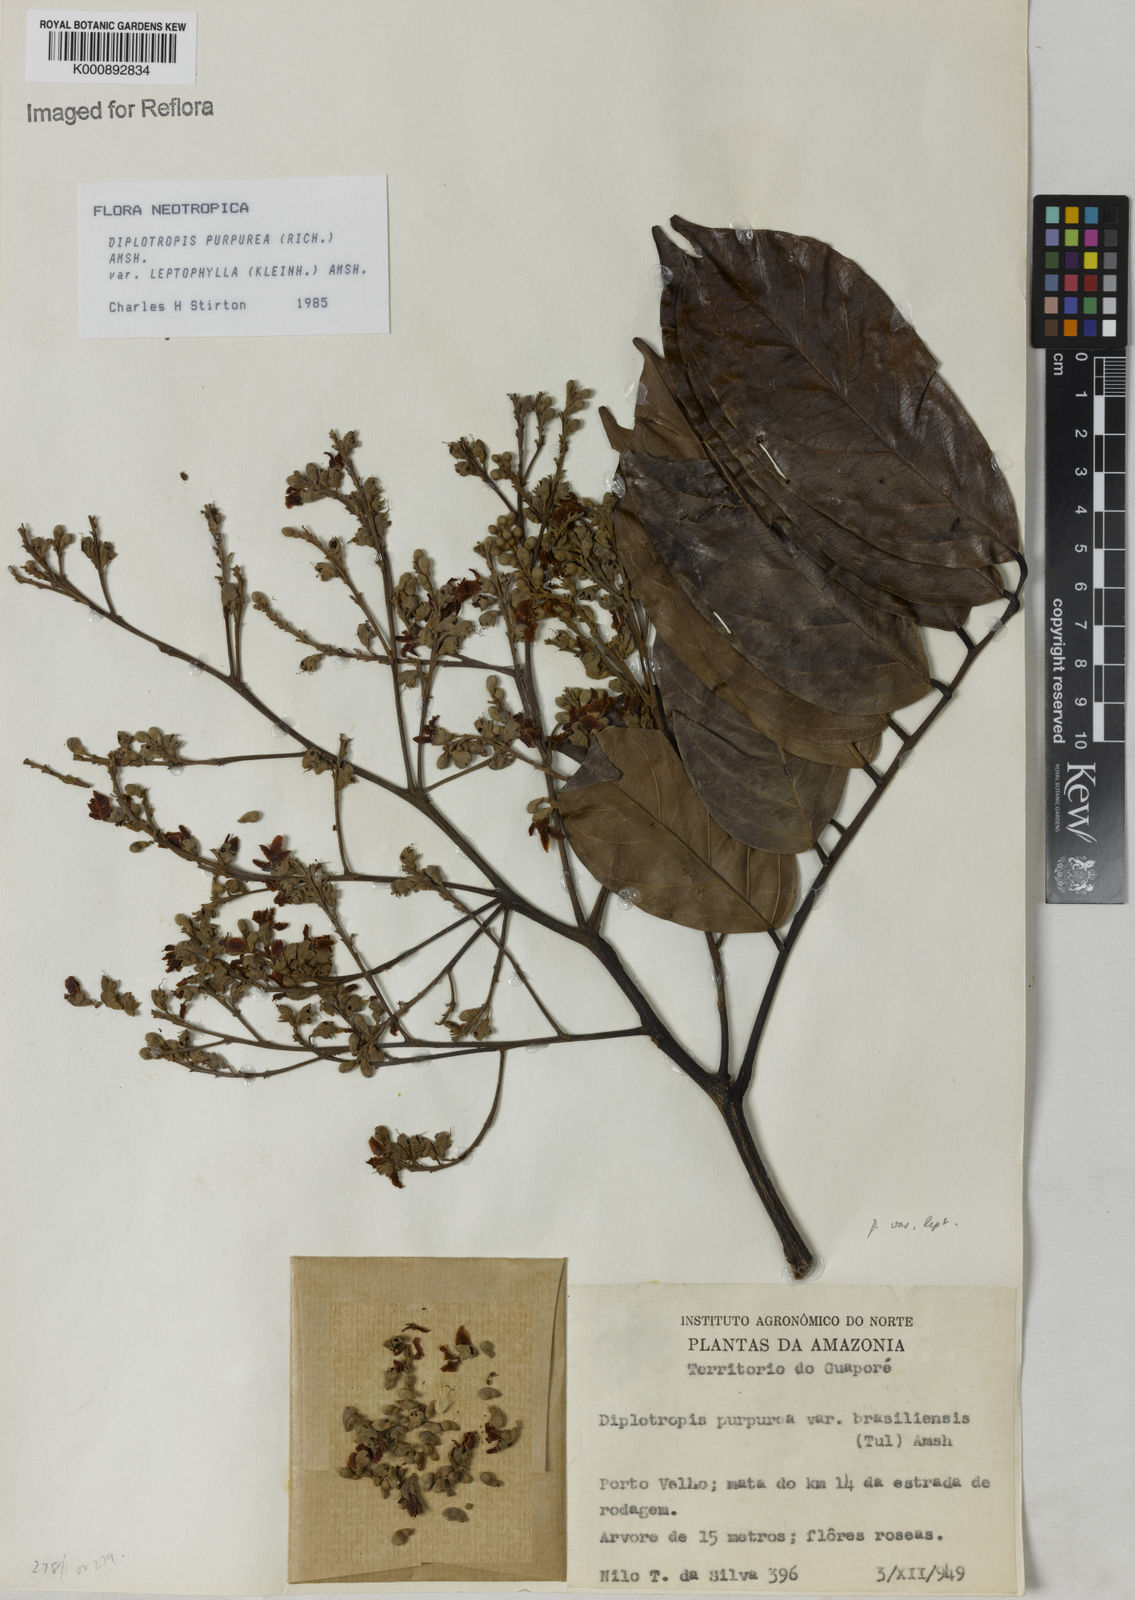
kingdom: Plantae
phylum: Tracheophyta
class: Magnoliopsida
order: Fabales
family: Fabaceae
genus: Diplotropis
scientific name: Diplotropis purpurea
